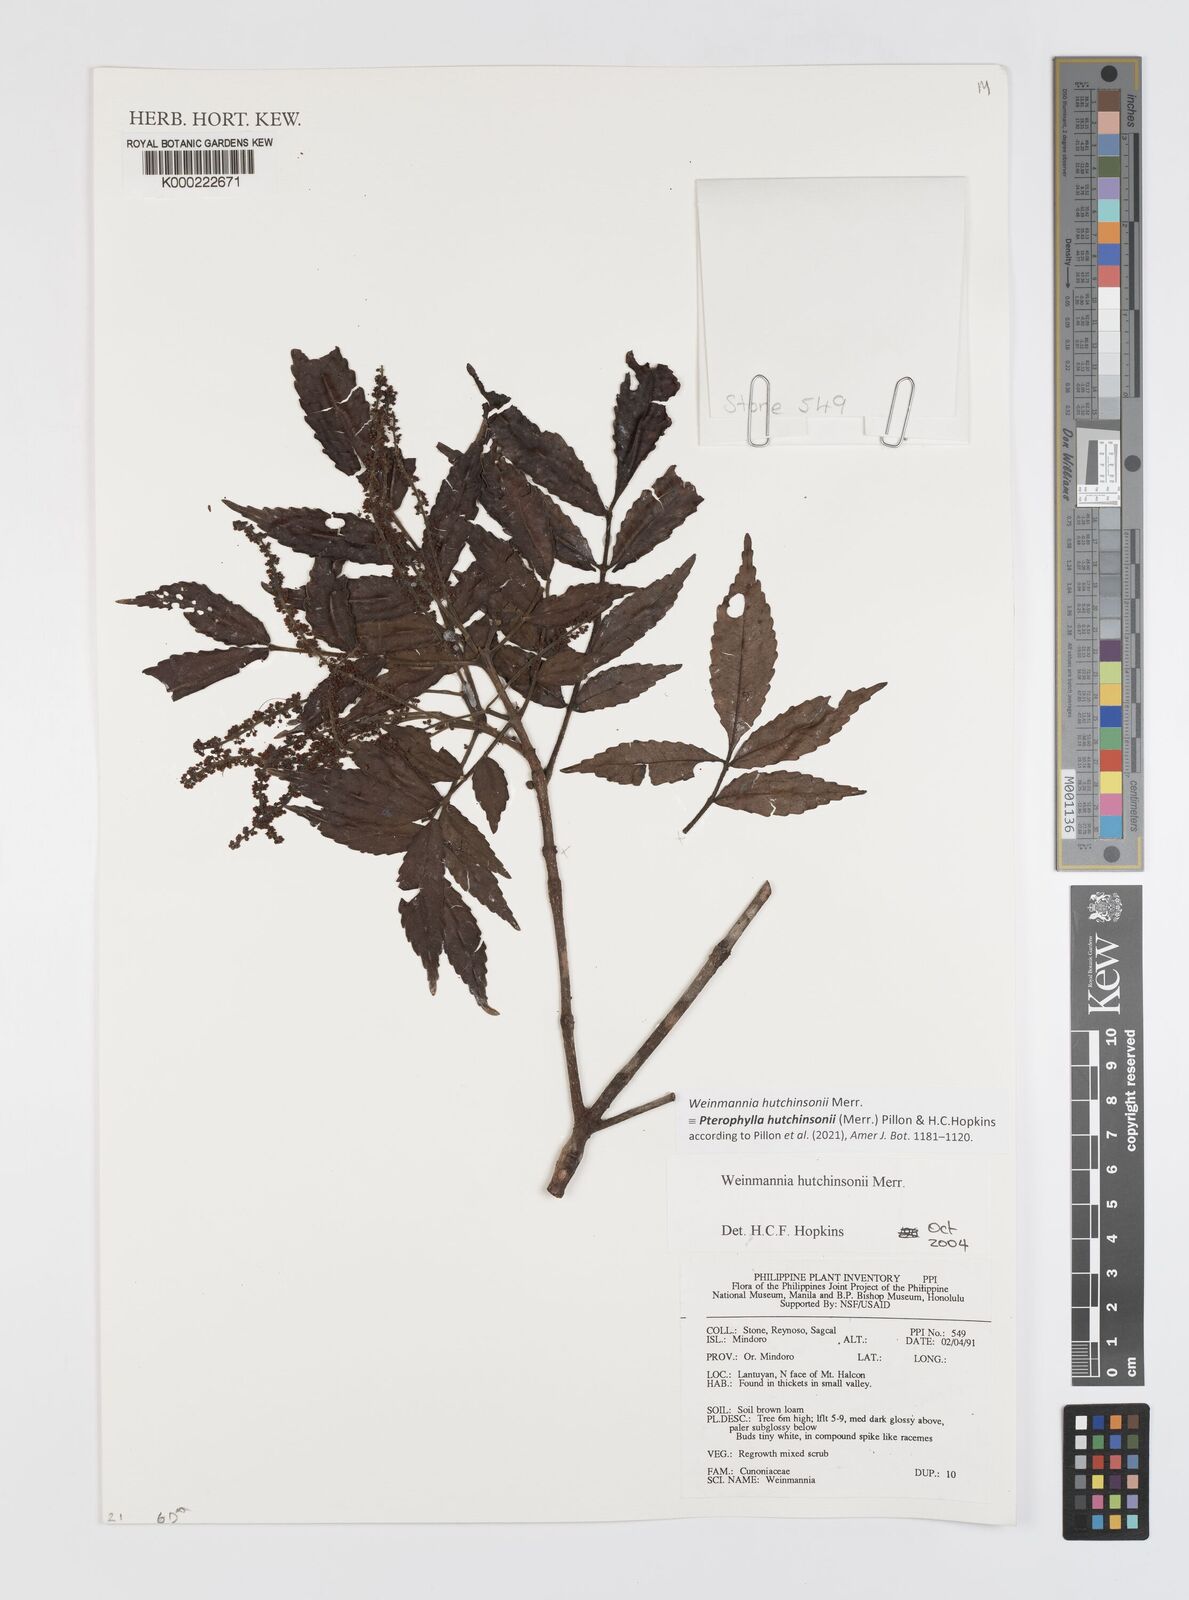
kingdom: Plantae
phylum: Tracheophyta
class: Magnoliopsida
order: Oxalidales
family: Cunoniaceae
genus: Pterophylla
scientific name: Pterophylla hutchinsonii
